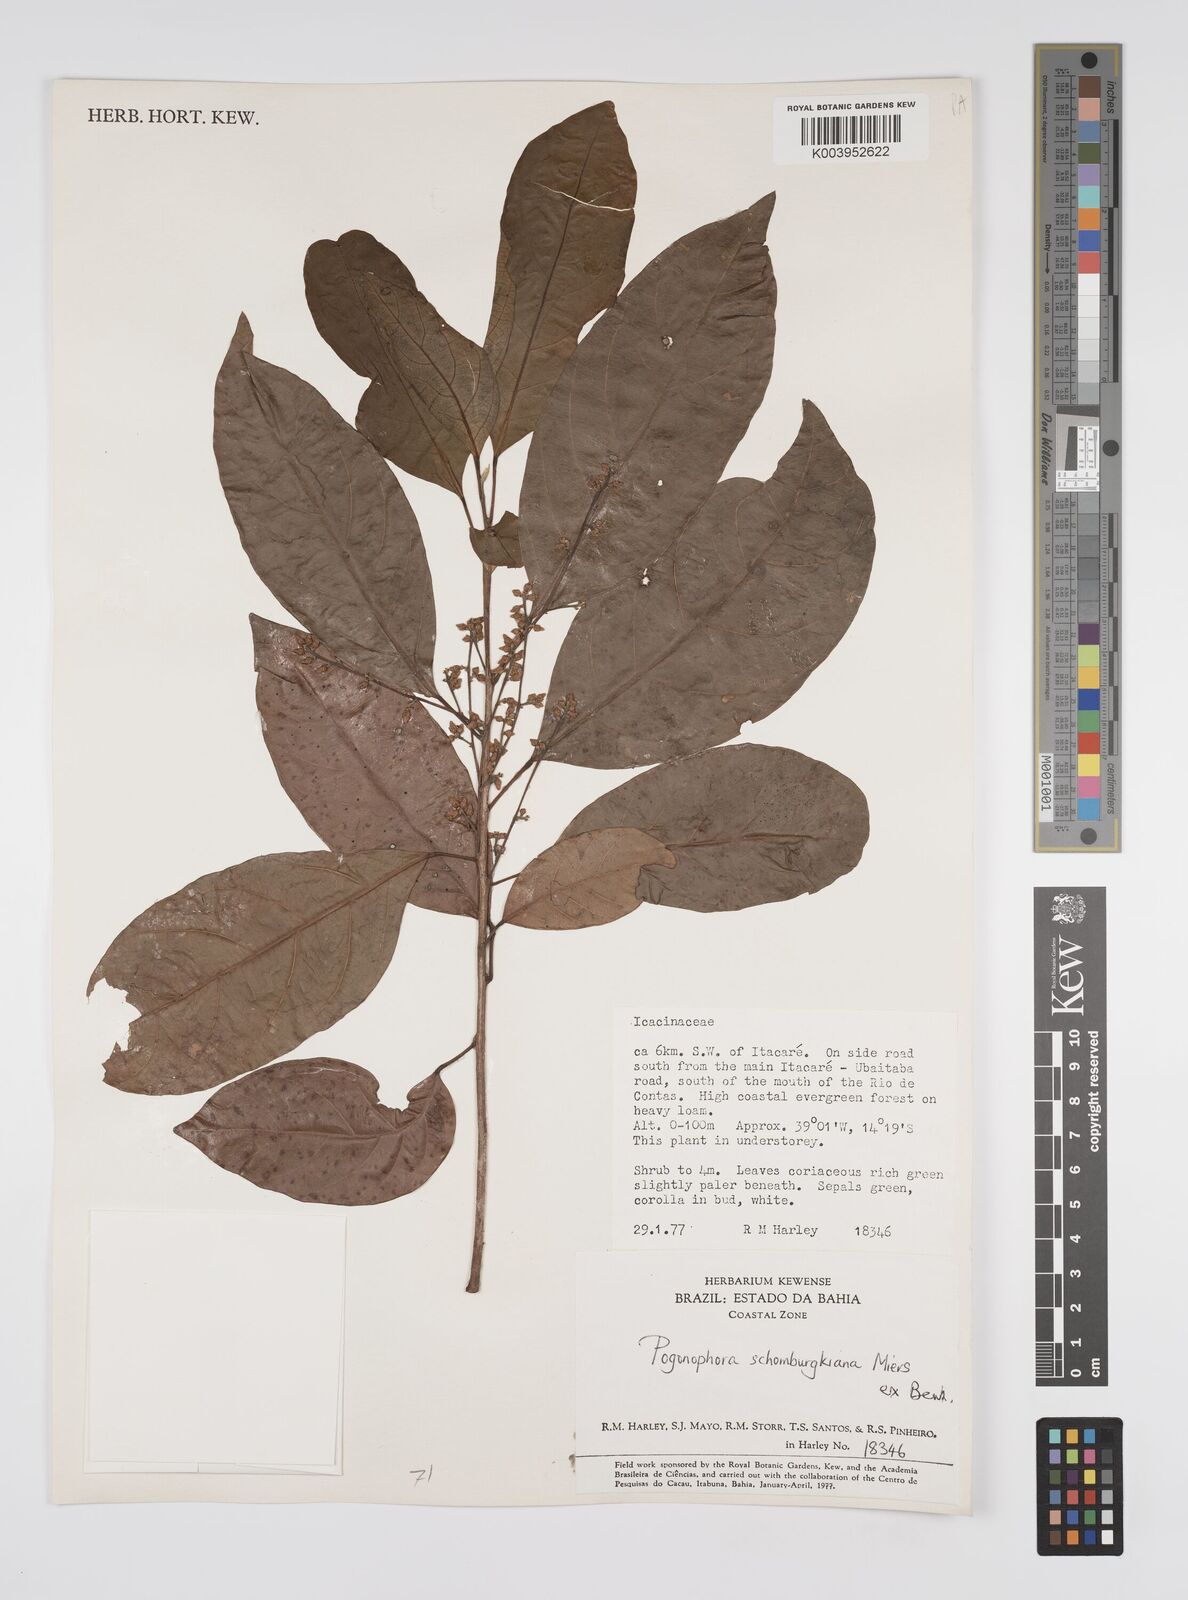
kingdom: Plantae
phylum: Tracheophyta
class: Magnoliopsida
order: Malpighiales
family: Peraceae
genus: Pogonophora
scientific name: Pogonophora schomburgkiana
